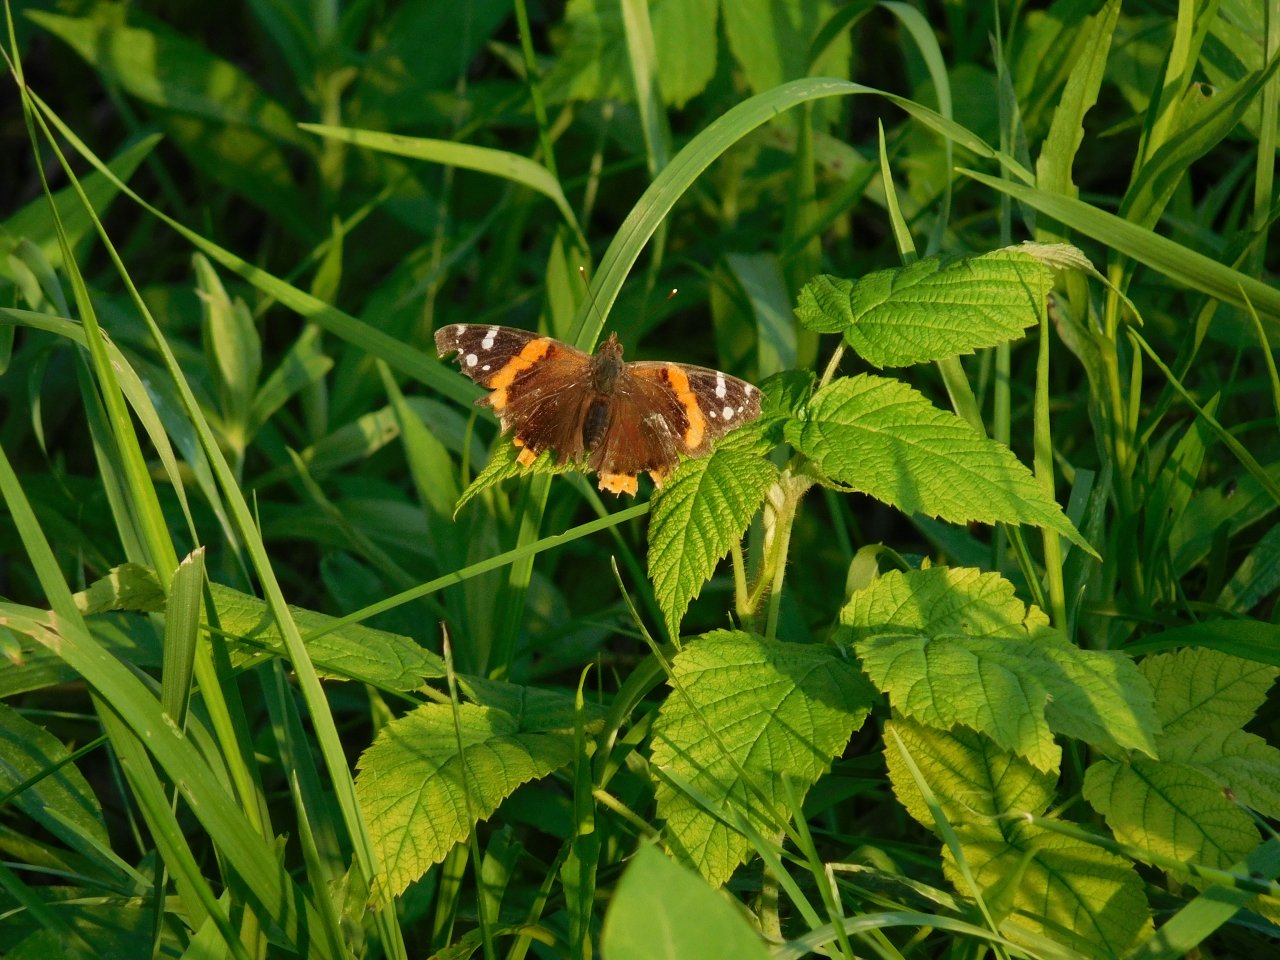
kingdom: Animalia
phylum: Arthropoda
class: Insecta
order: Lepidoptera
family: Nymphalidae
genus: Vanessa
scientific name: Vanessa atalanta
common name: Red Admiral
